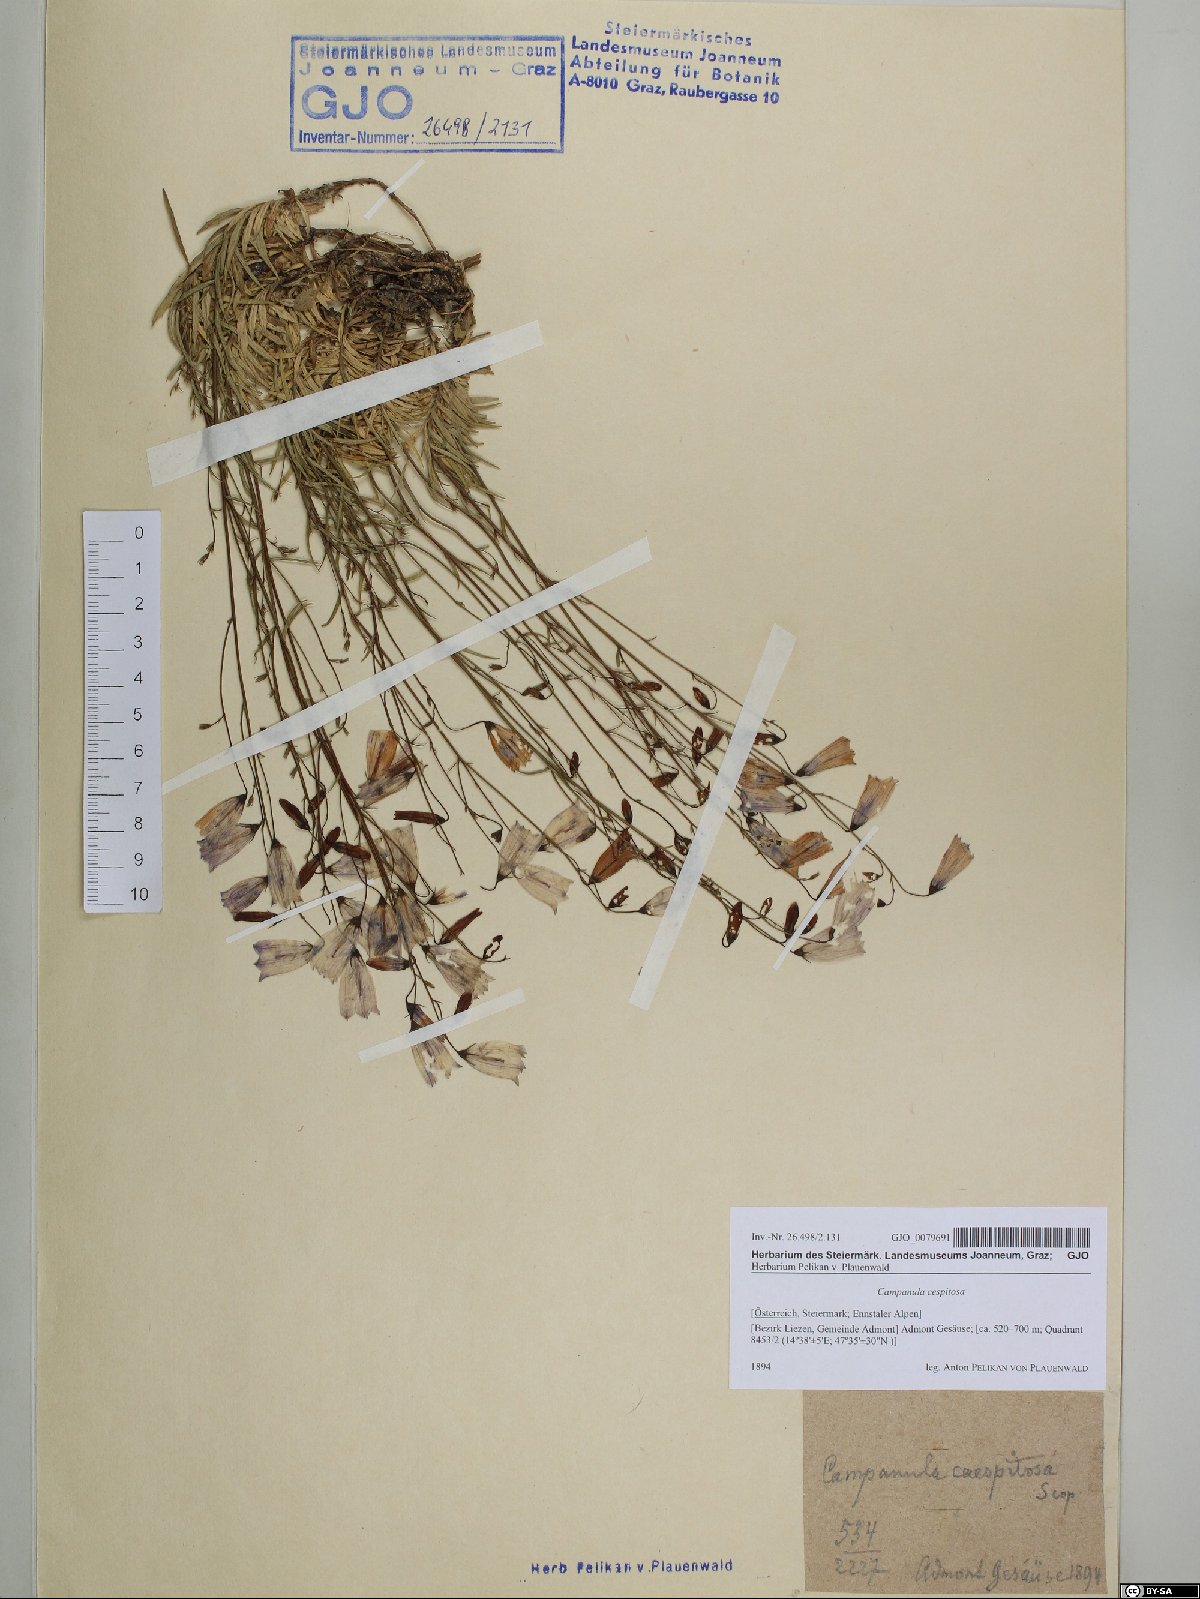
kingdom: Plantae
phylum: Tracheophyta
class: Magnoliopsida
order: Asterales
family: Campanulaceae
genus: Campanula
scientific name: Campanula cespitosa
